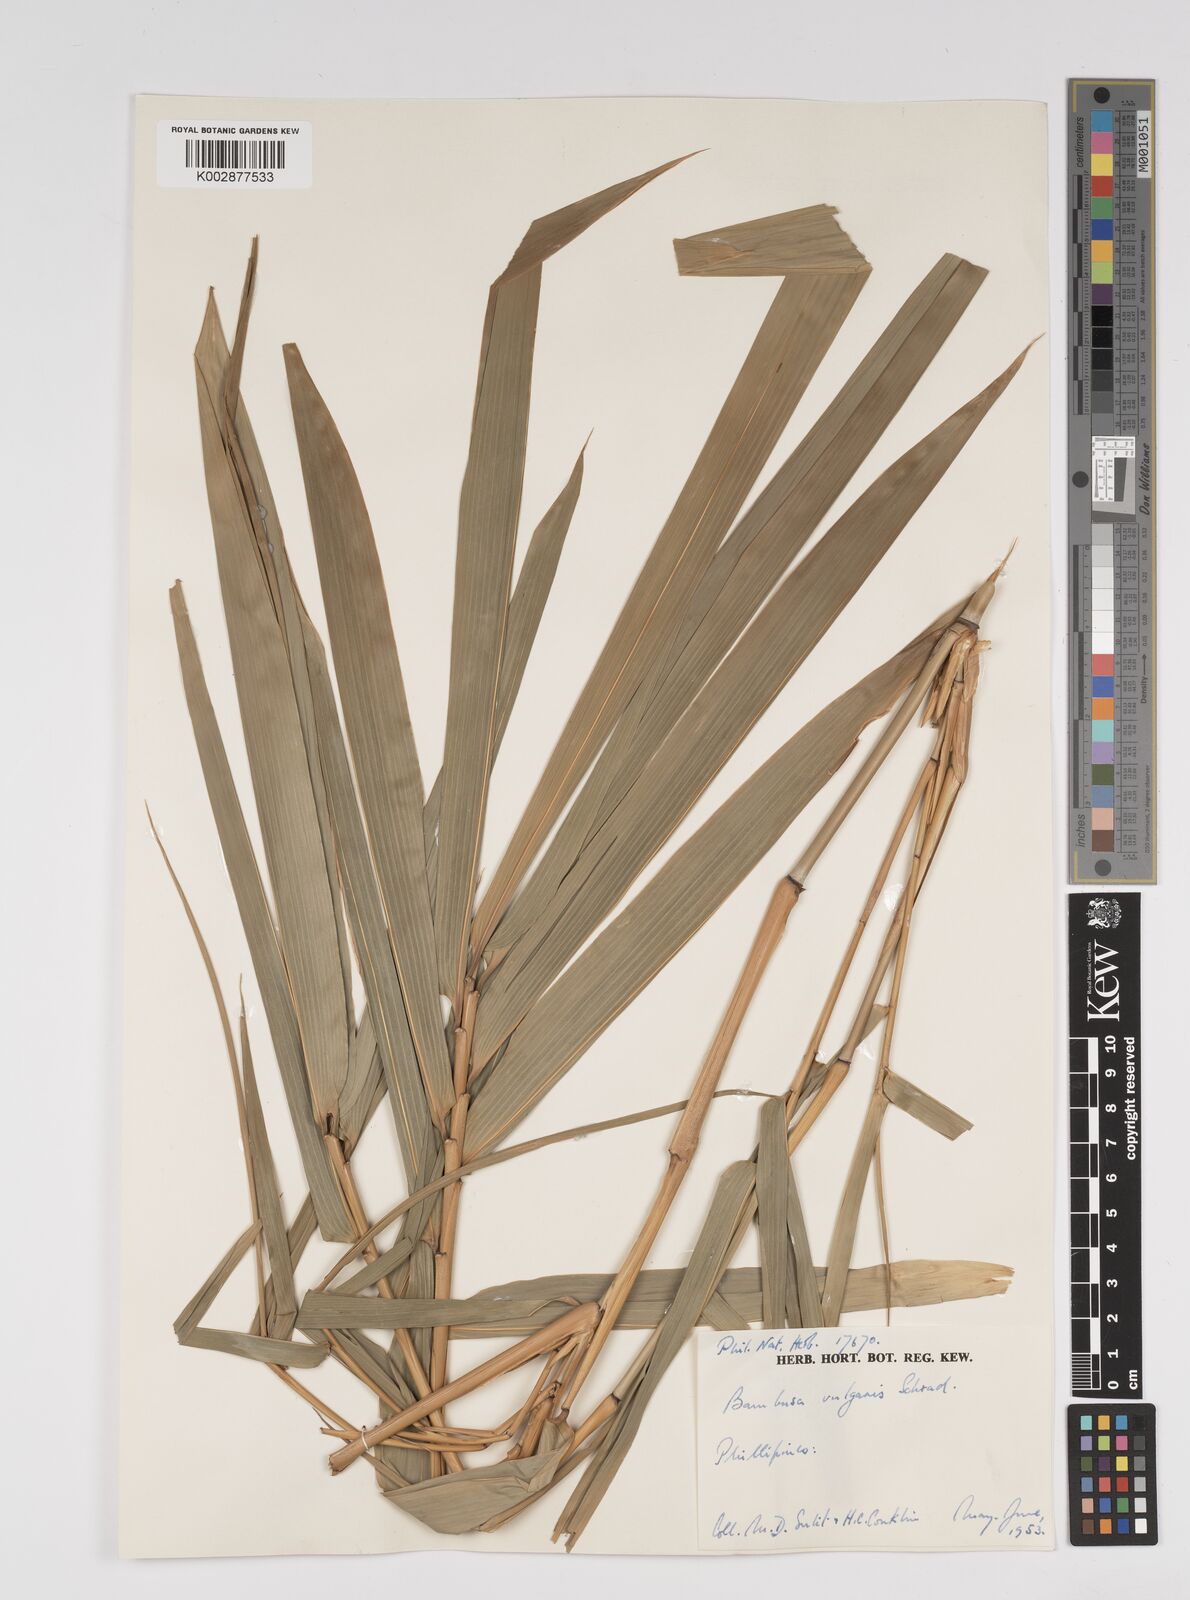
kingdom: Plantae
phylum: Tracheophyta
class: Liliopsida
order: Poales
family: Poaceae
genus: Bambusa
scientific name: Bambusa vulgaris
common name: Common bamboo
